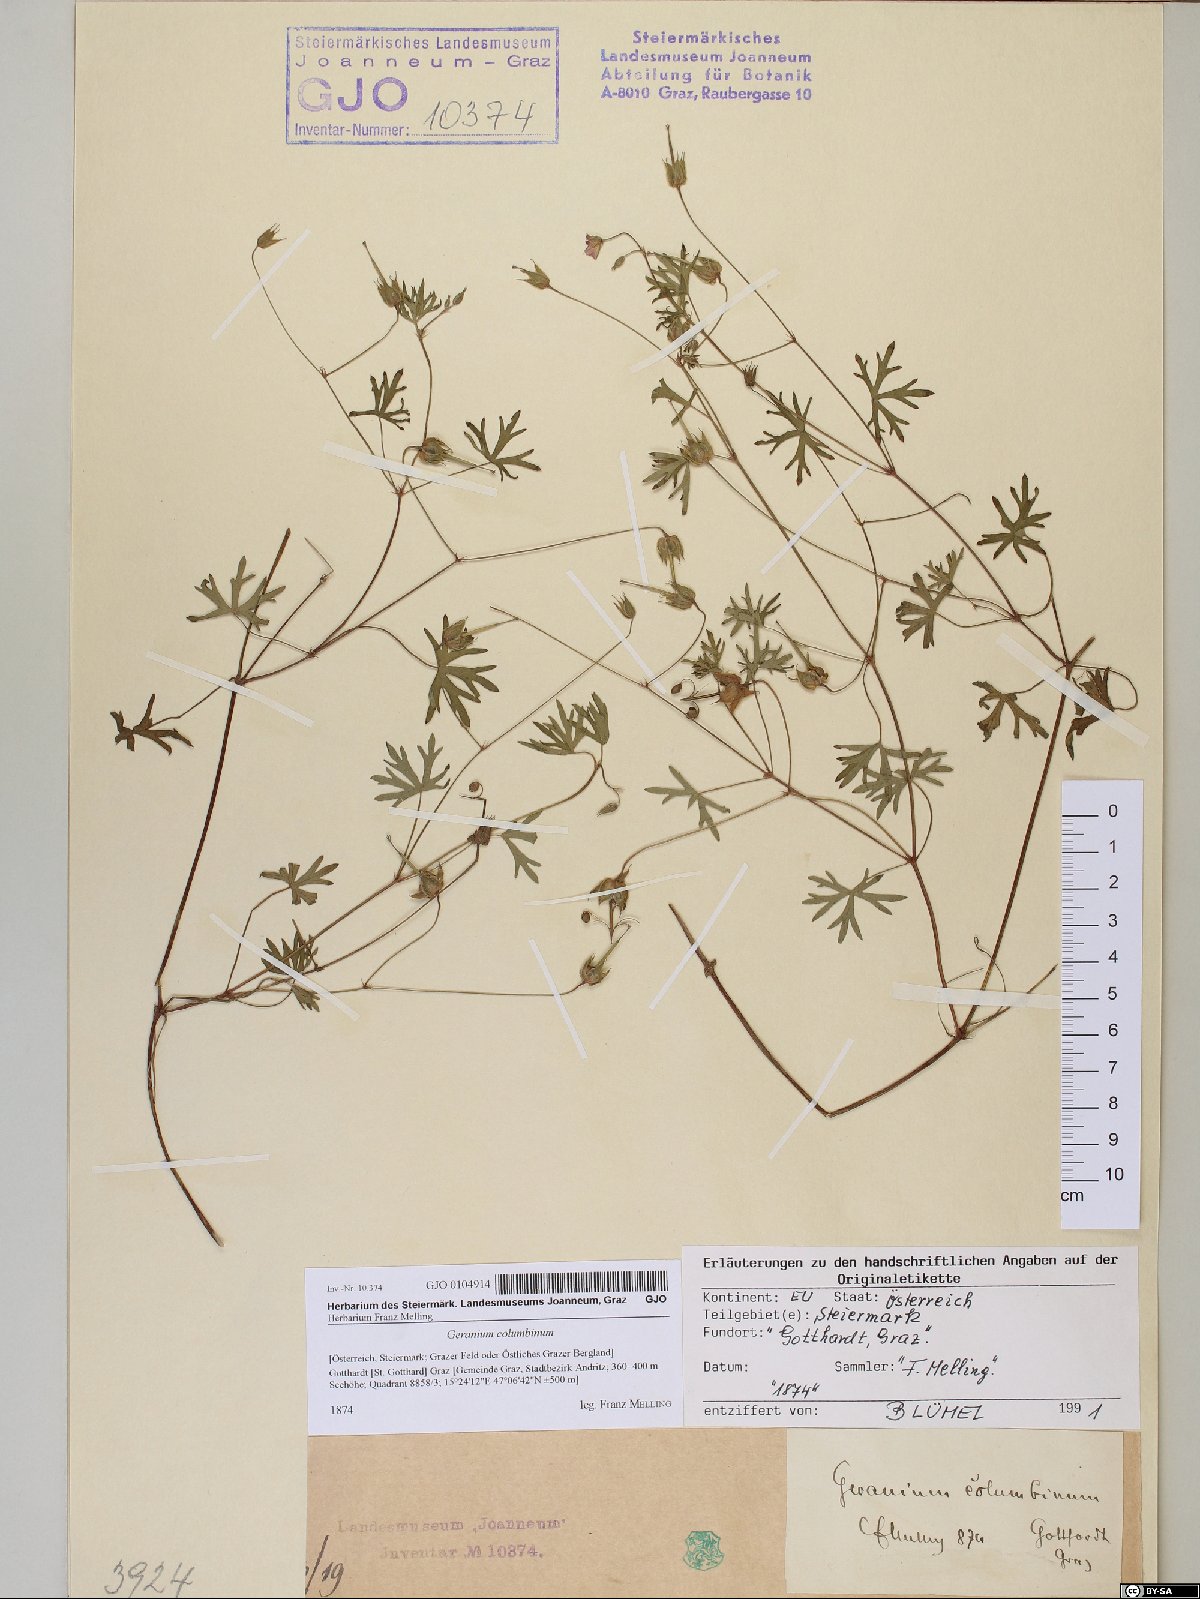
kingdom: Plantae
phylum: Tracheophyta
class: Magnoliopsida
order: Geraniales
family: Geraniaceae
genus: Geranium
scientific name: Geranium columbinum
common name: Long-stalked crane's-bill
